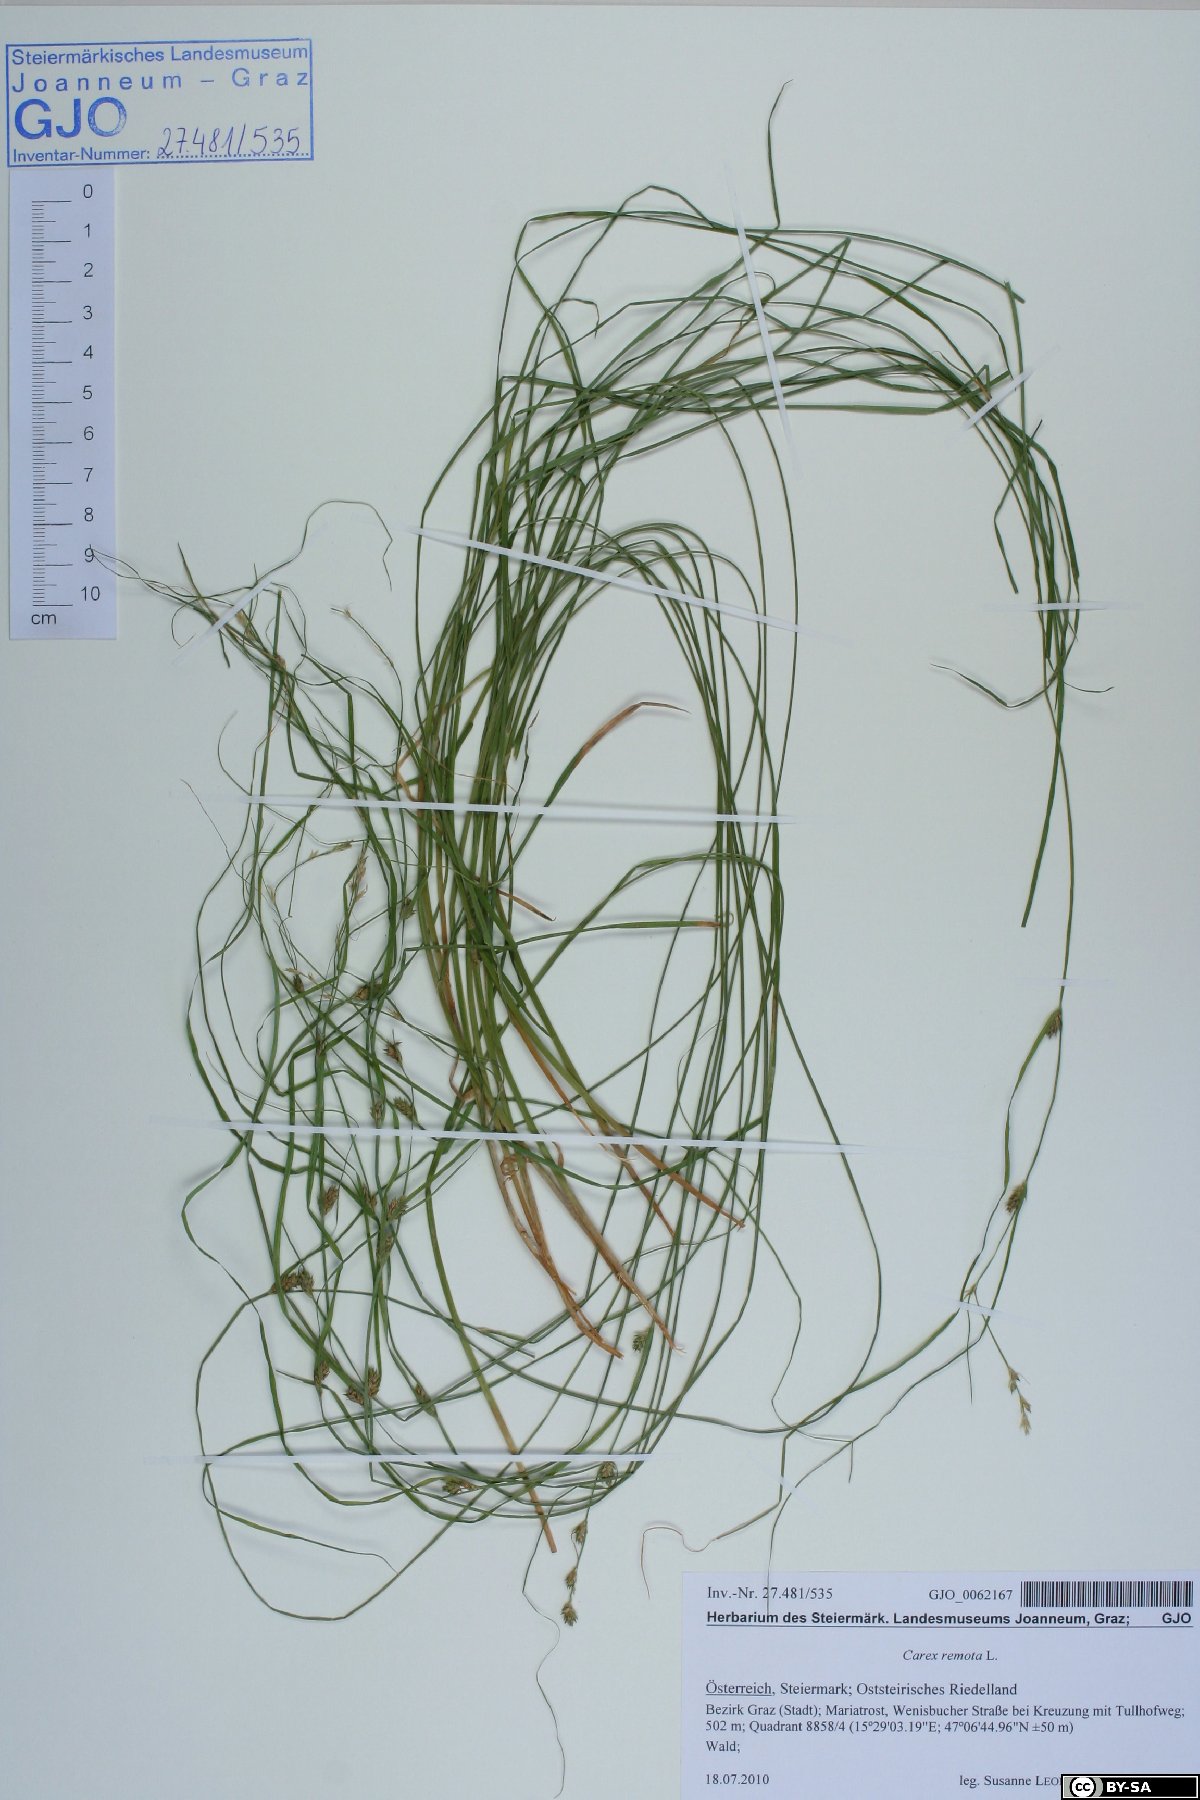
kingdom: Plantae
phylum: Tracheophyta
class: Liliopsida
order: Poales
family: Cyperaceae
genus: Carex
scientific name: Carex remota
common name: Remote sedge
